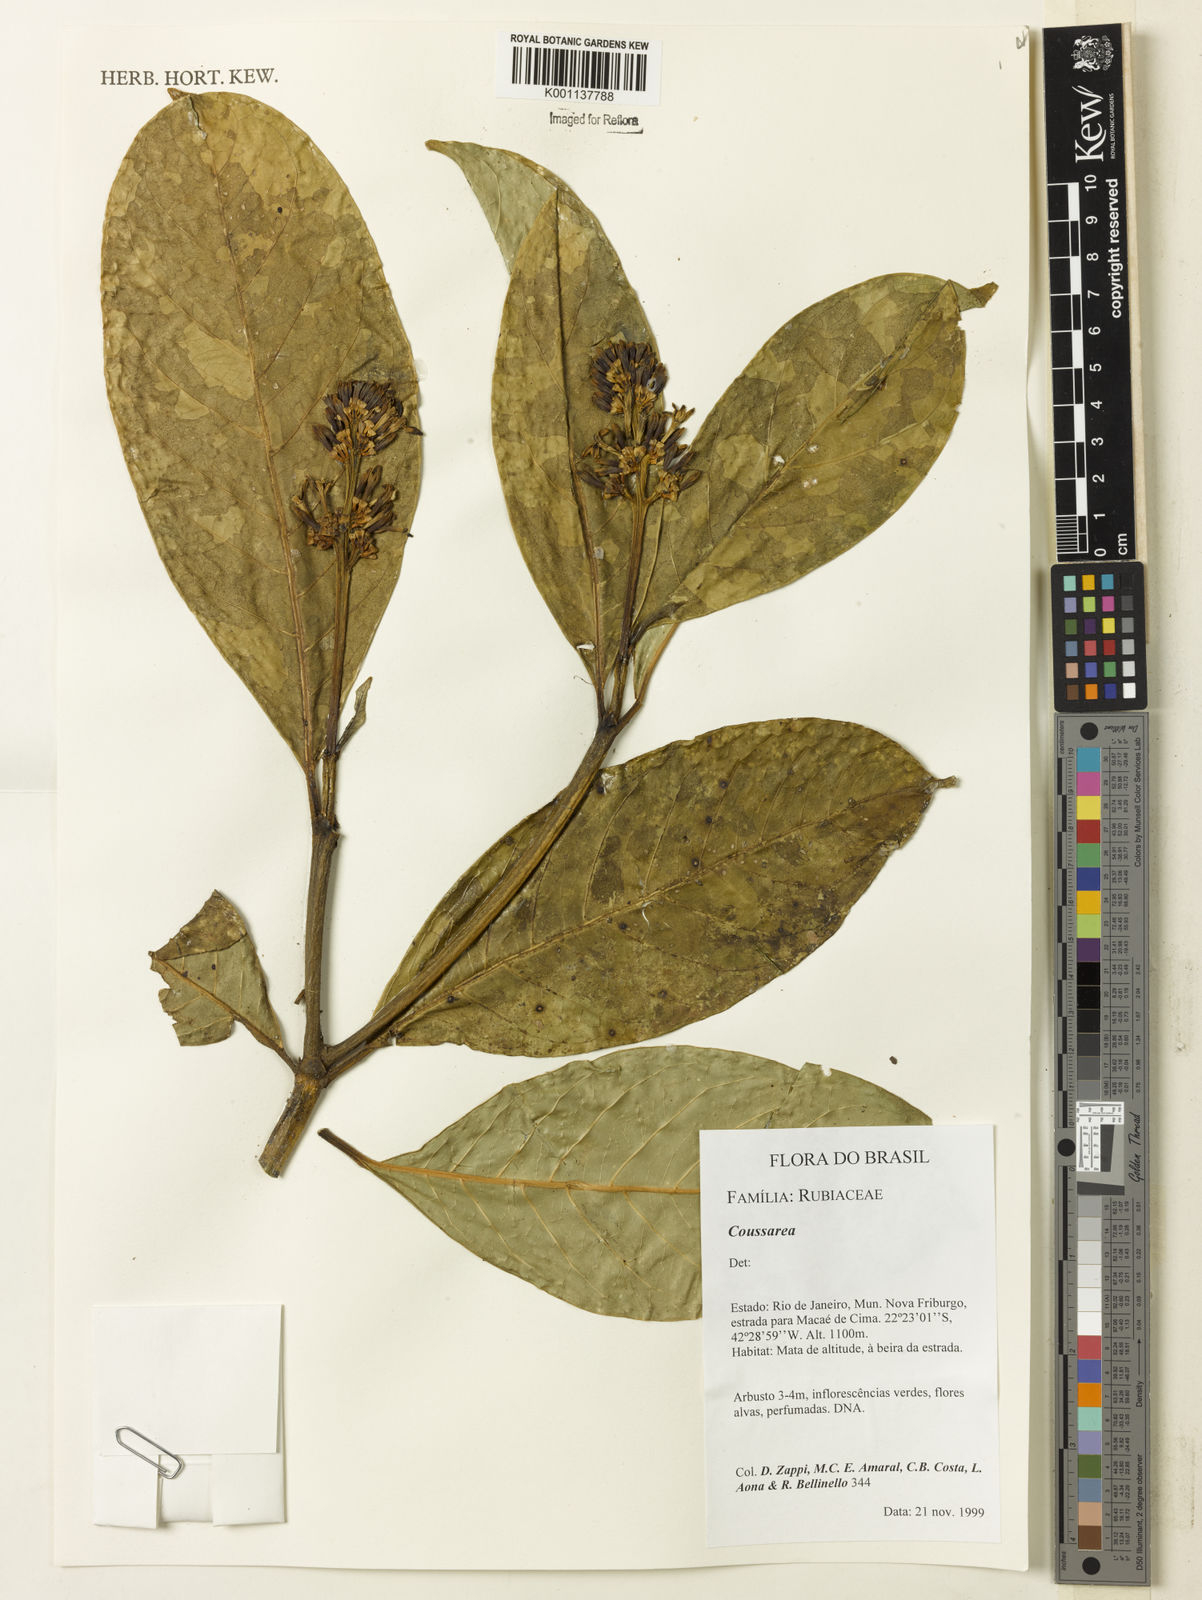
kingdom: Plantae
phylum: Tracheophyta
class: Magnoliopsida
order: Gentianales
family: Rubiaceae
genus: Coussarea
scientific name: Coussarea
